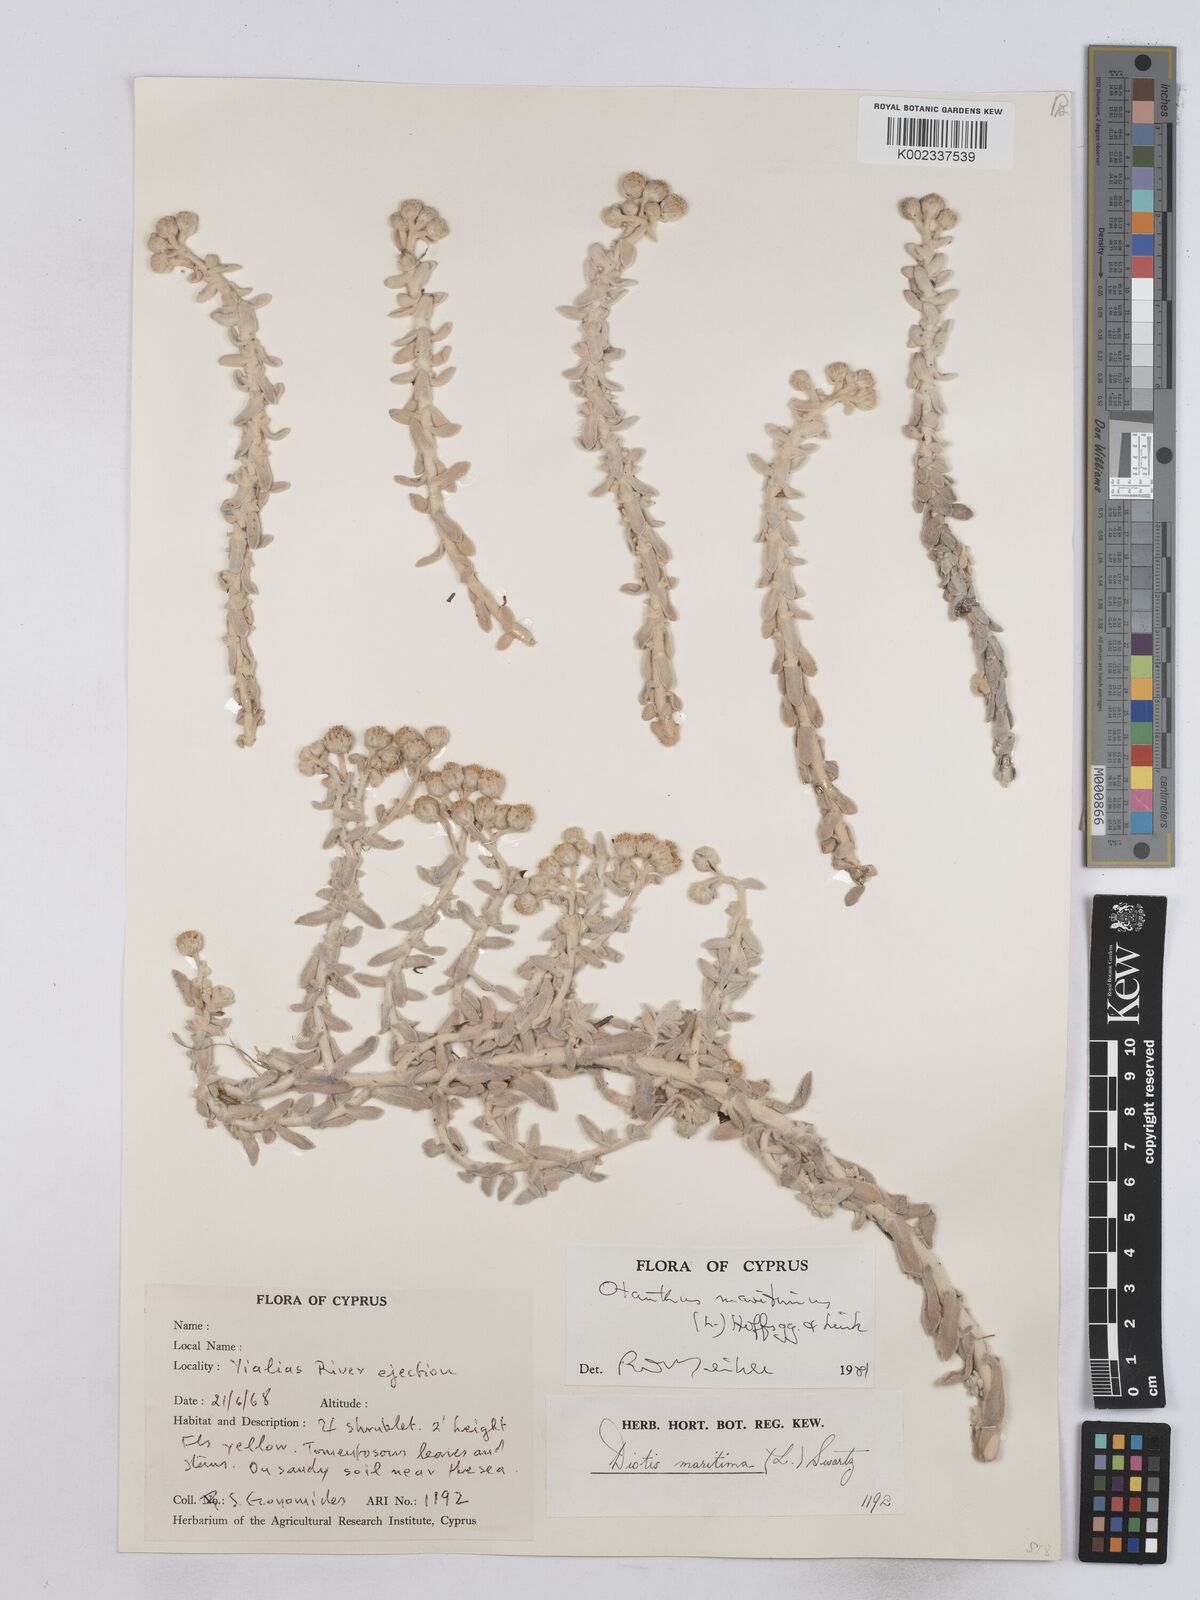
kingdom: Plantae
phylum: Tracheophyta
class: Magnoliopsida
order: Asterales
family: Asteraceae
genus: Achillea
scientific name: Achillea maritima
